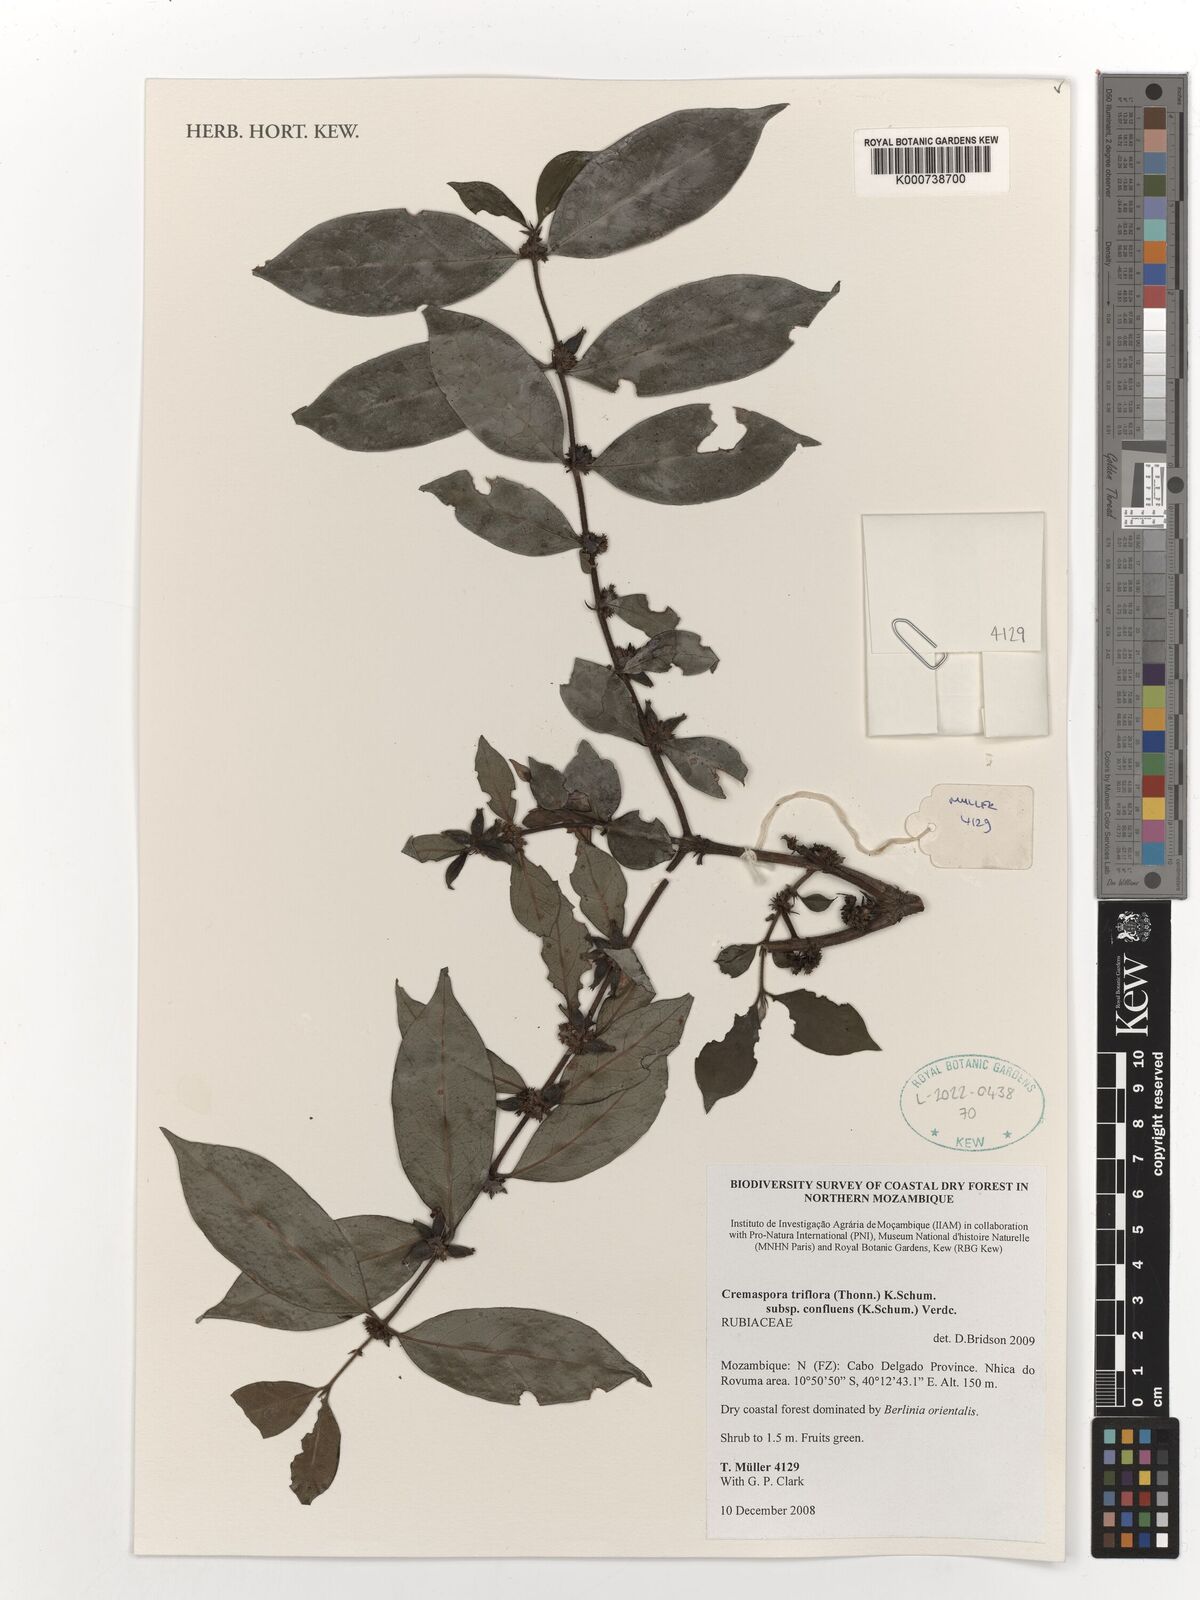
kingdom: Plantae
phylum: Tracheophyta
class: Magnoliopsida
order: Gentianales
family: Rubiaceae
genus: Cremaspora
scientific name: Cremaspora triflora
